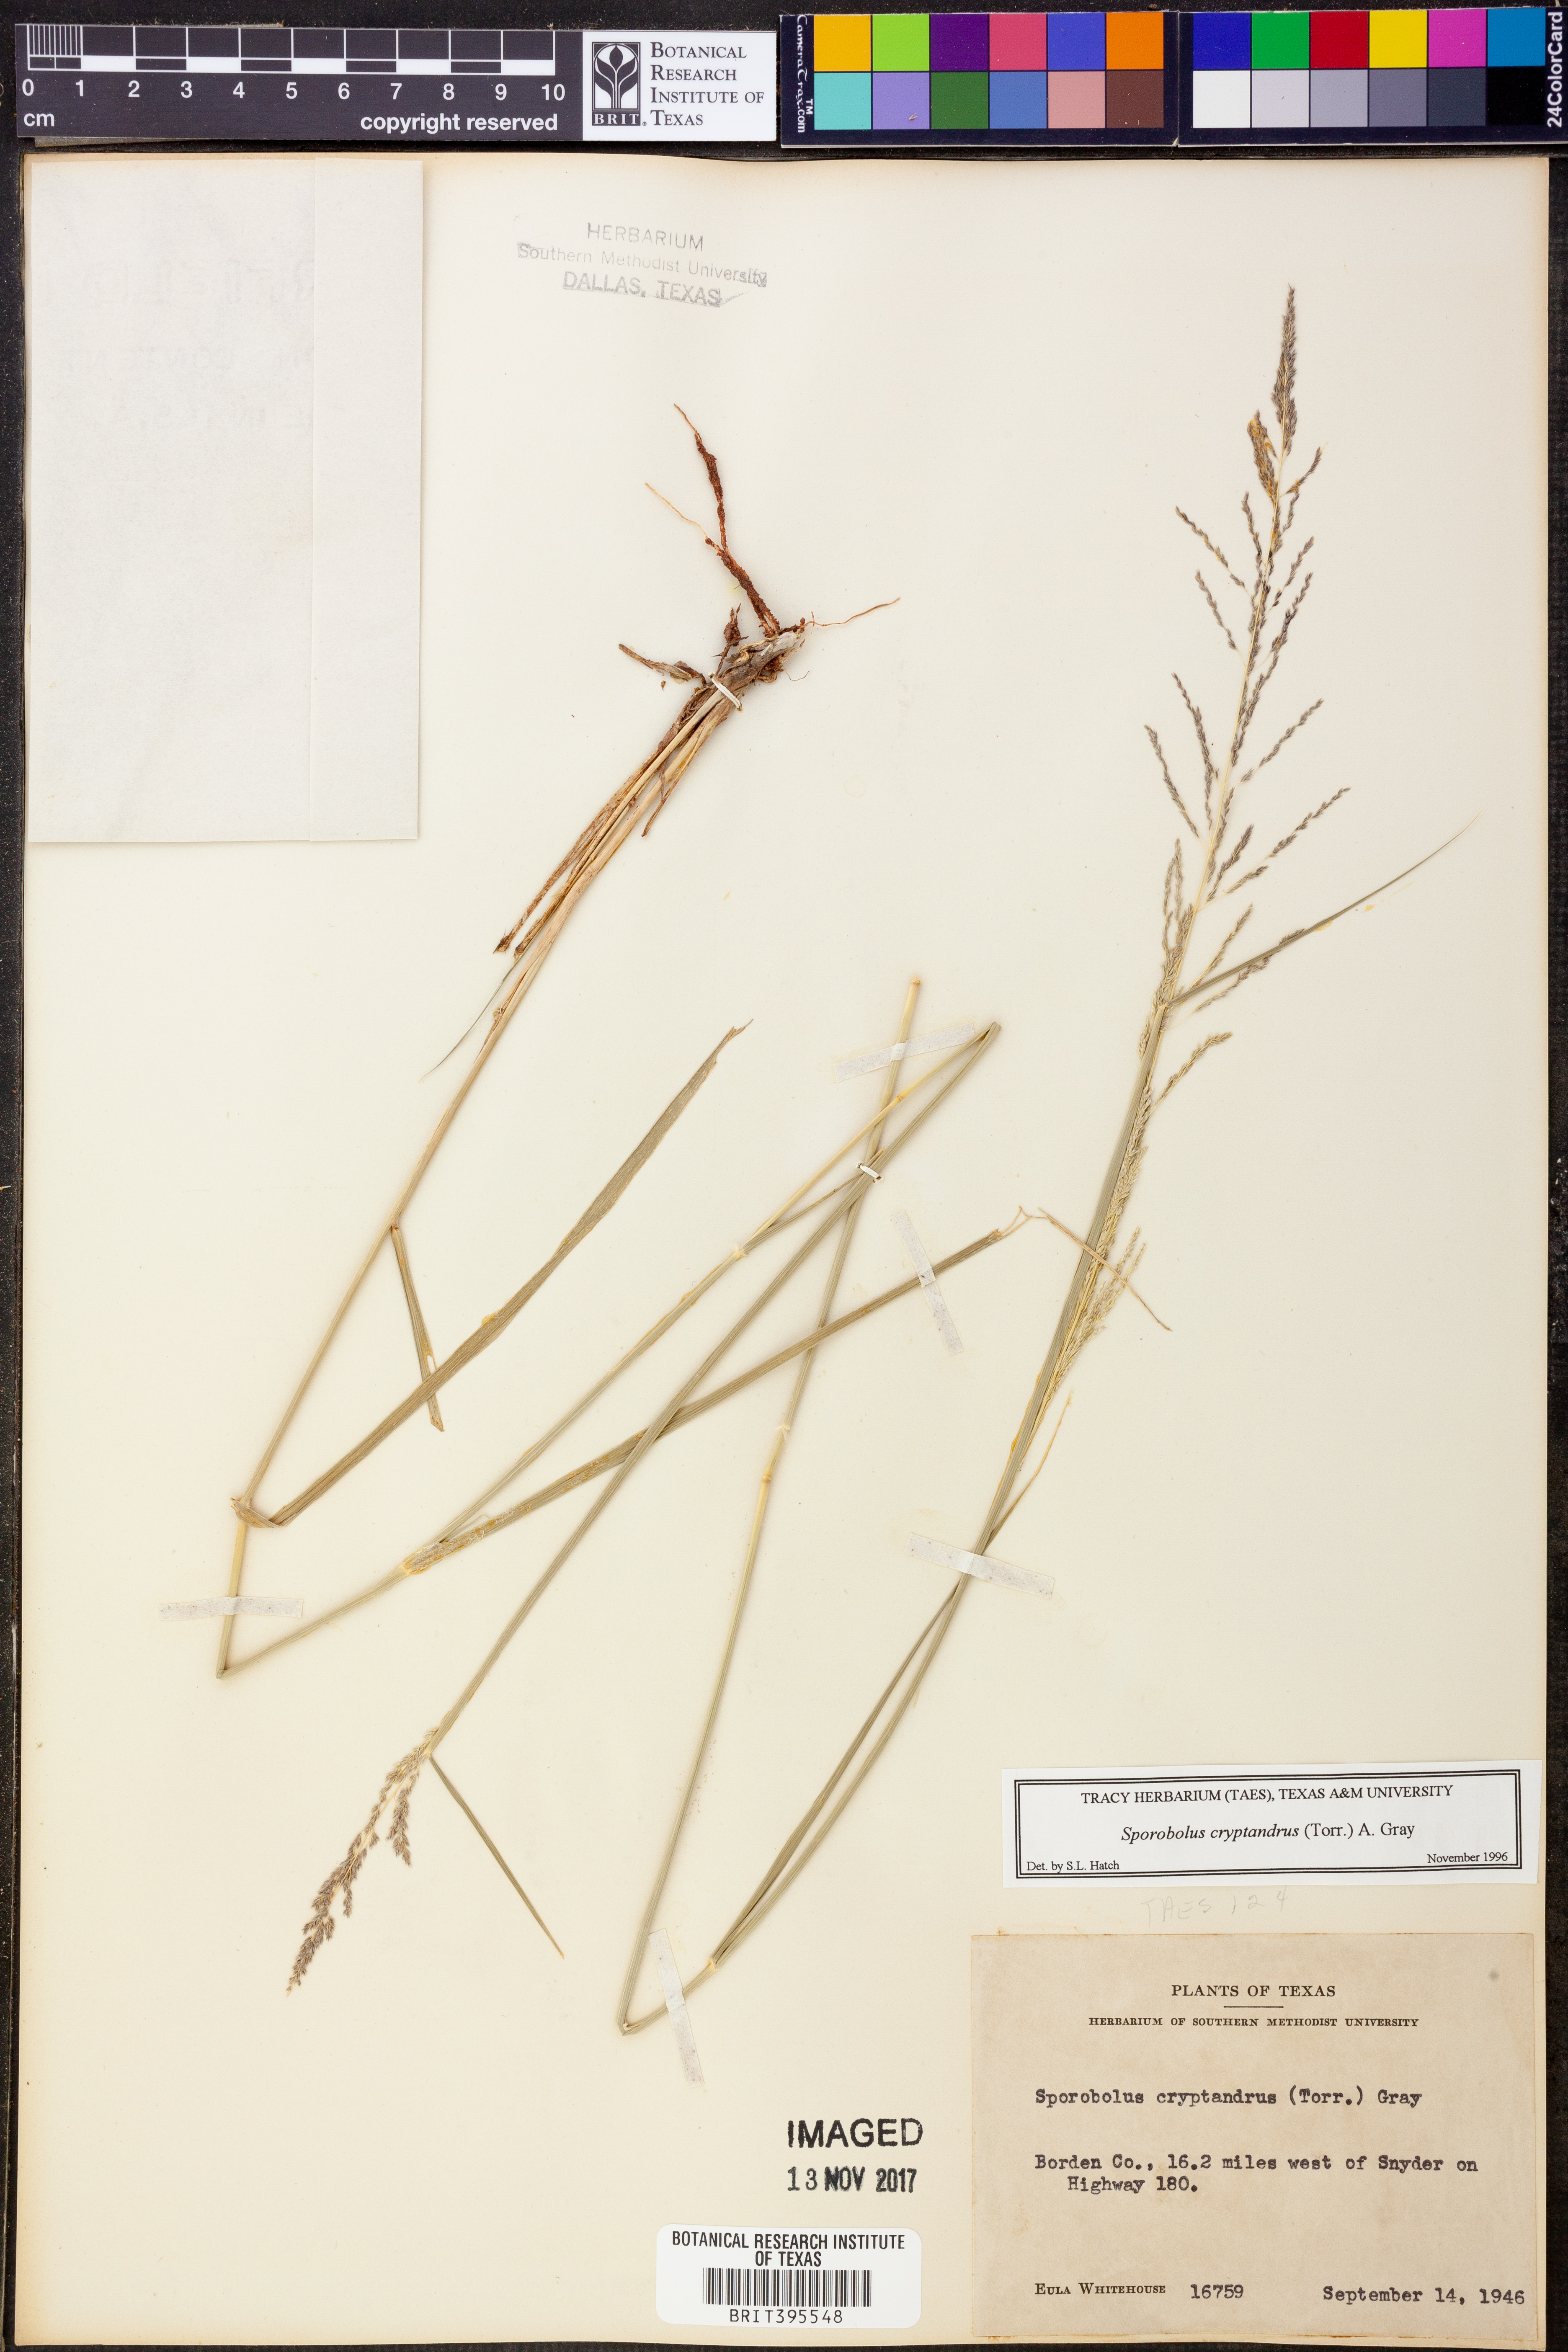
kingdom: Plantae
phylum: Tracheophyta
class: Liliopsida
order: Poales
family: Poaceae
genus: Sporobolus
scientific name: Sporobolus cryptandrus
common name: Sand dropseed
